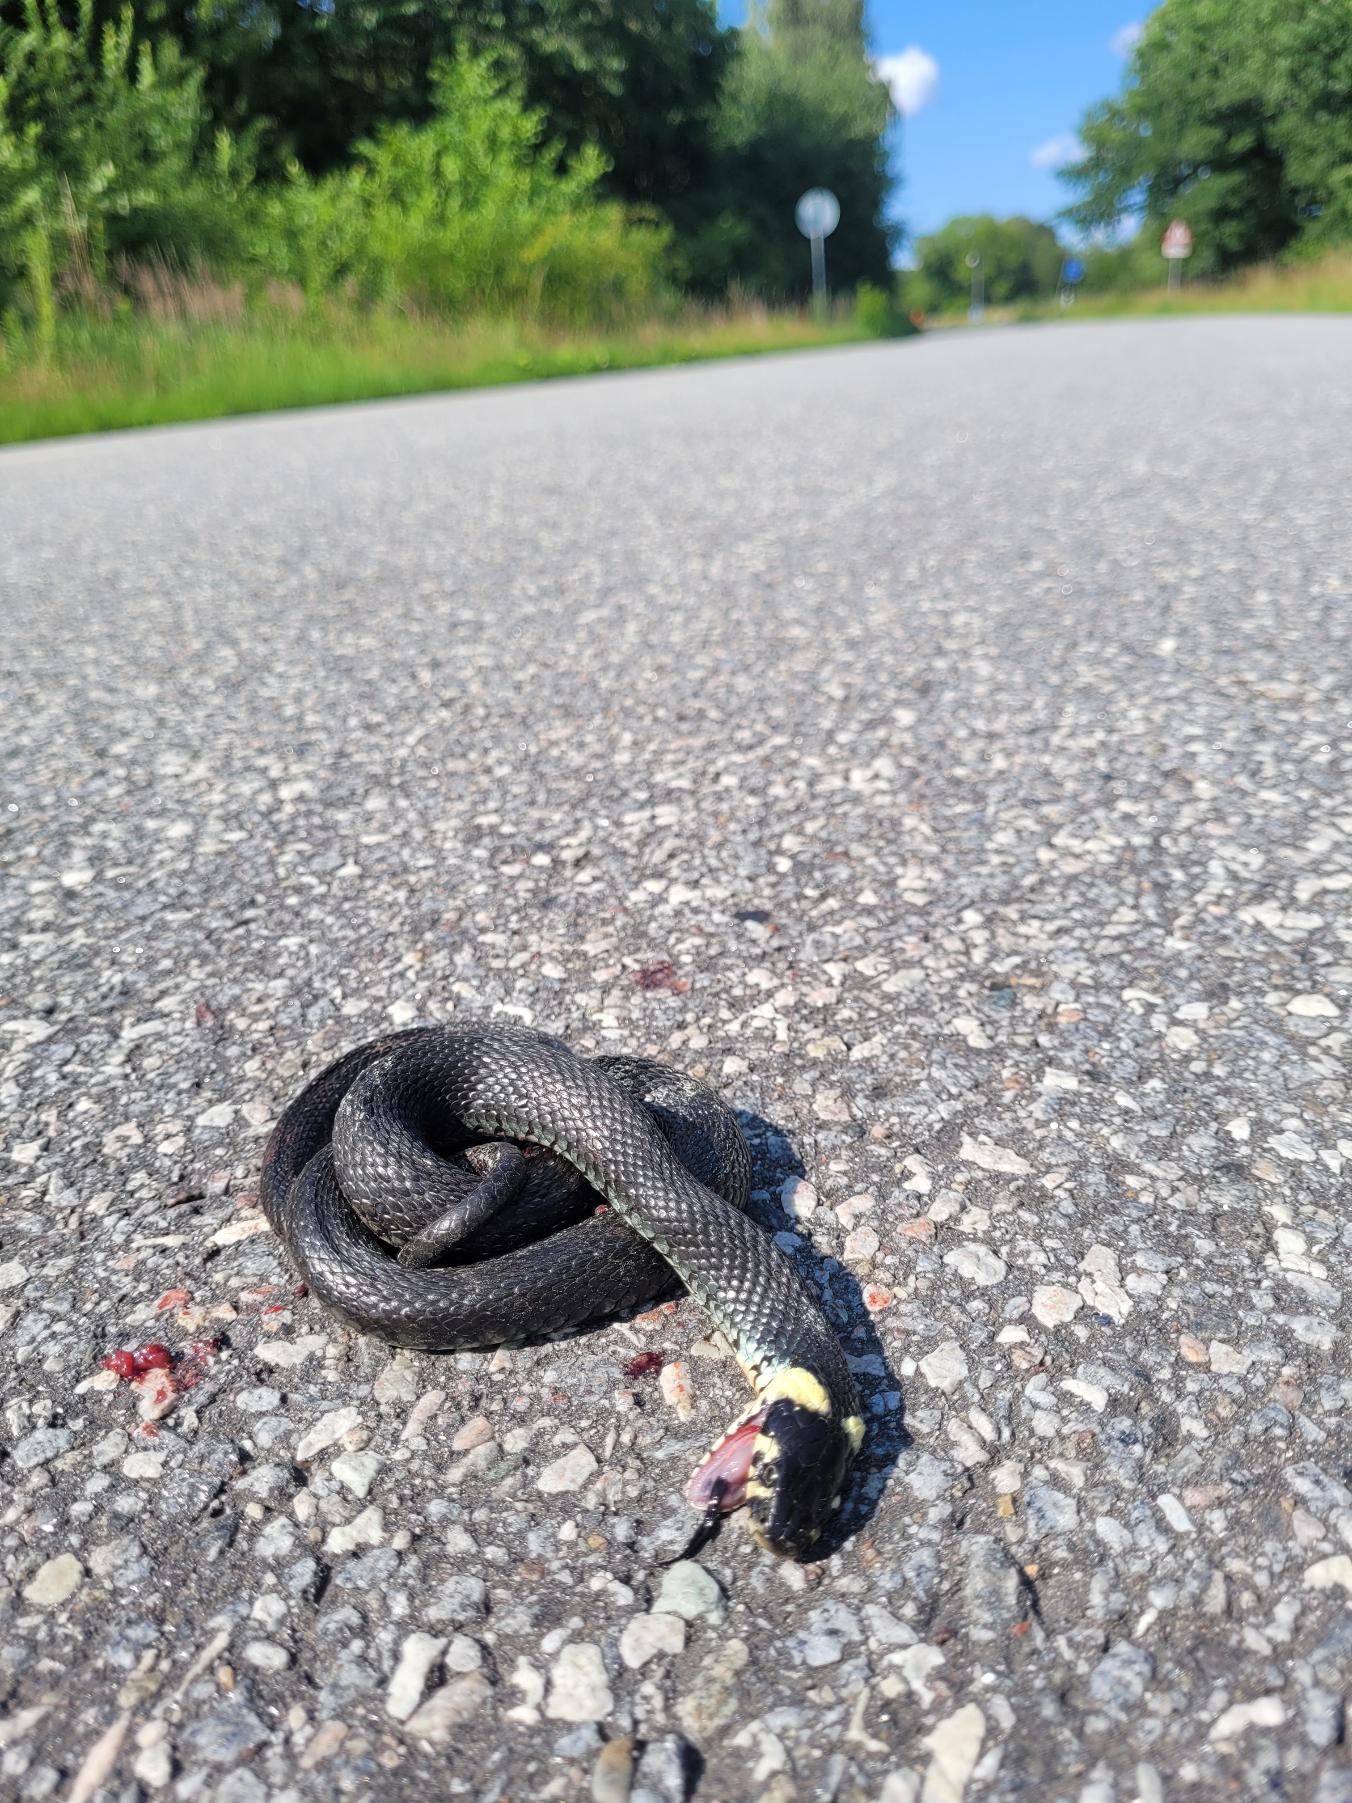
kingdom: Animalia
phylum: Chordata
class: Squamata
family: Colubridae
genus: Natrix
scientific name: Natrix natrix
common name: Snog
